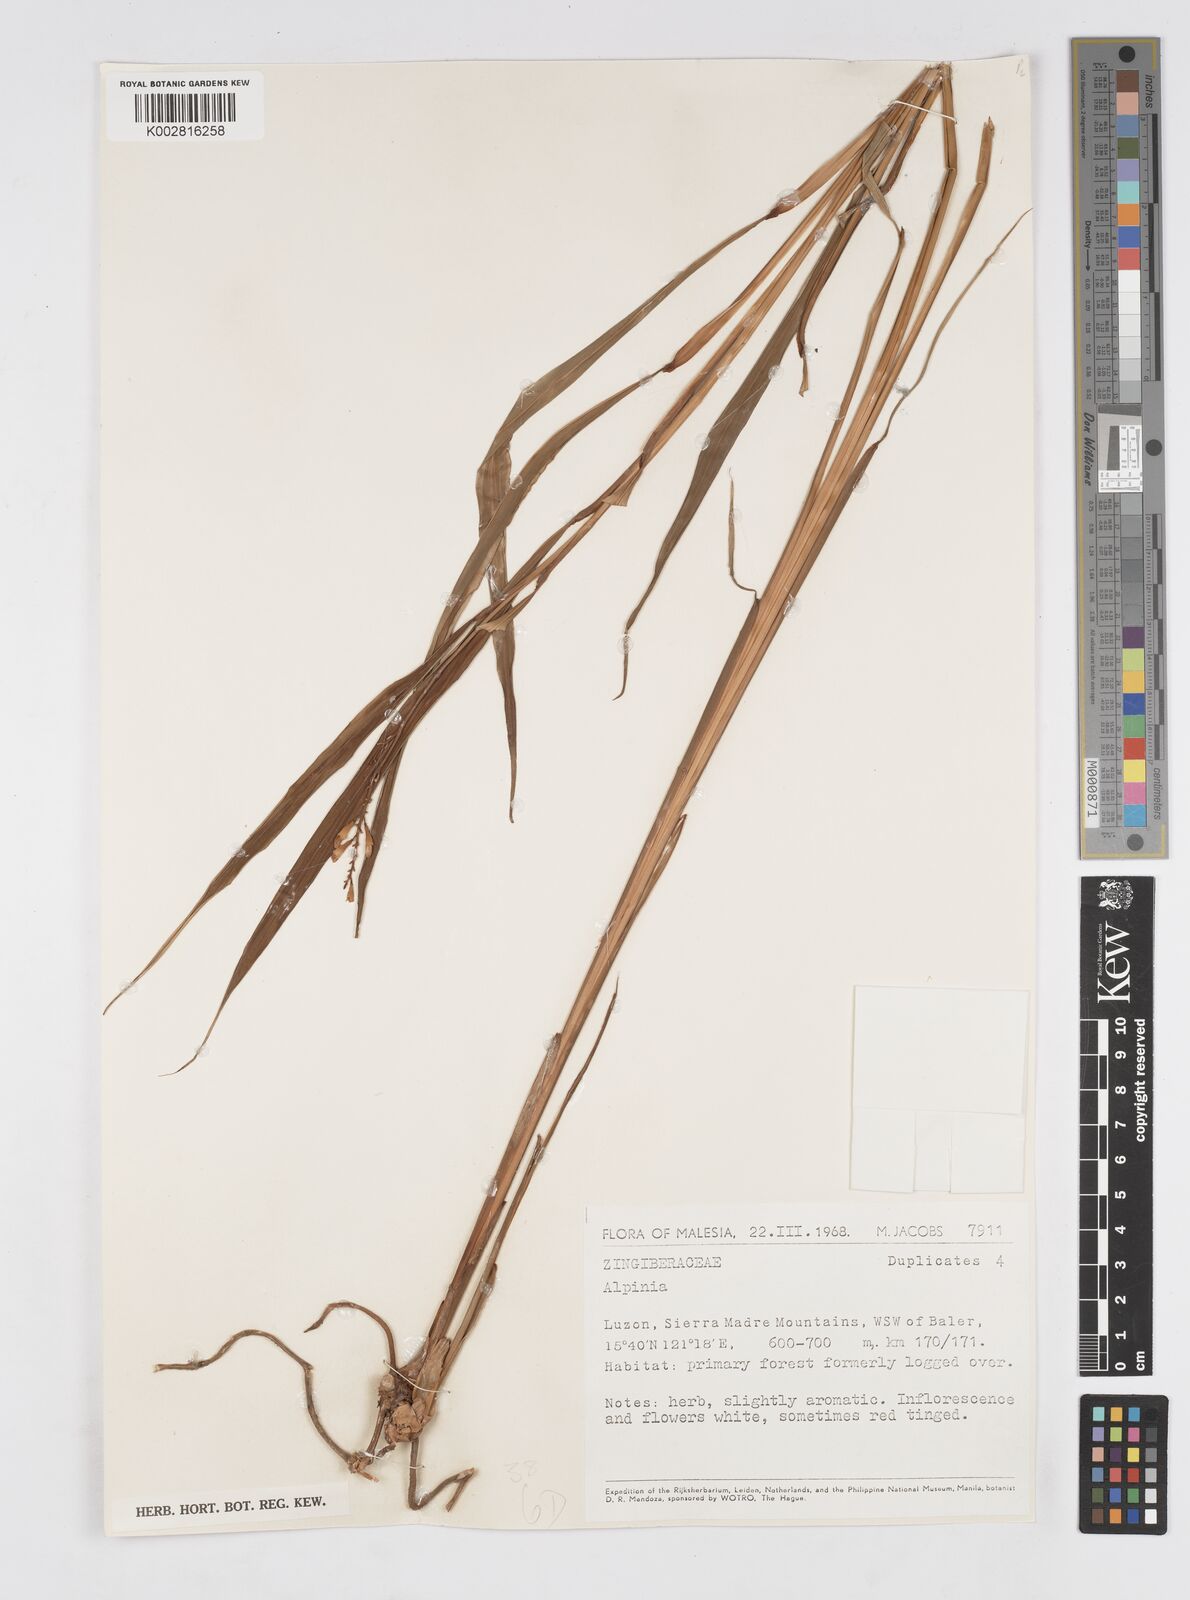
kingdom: Plantae
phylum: Tracheophyta
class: Liliopsida
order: Zingiberales
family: Zingiberaceae
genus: Alpinia
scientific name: Alpinia
